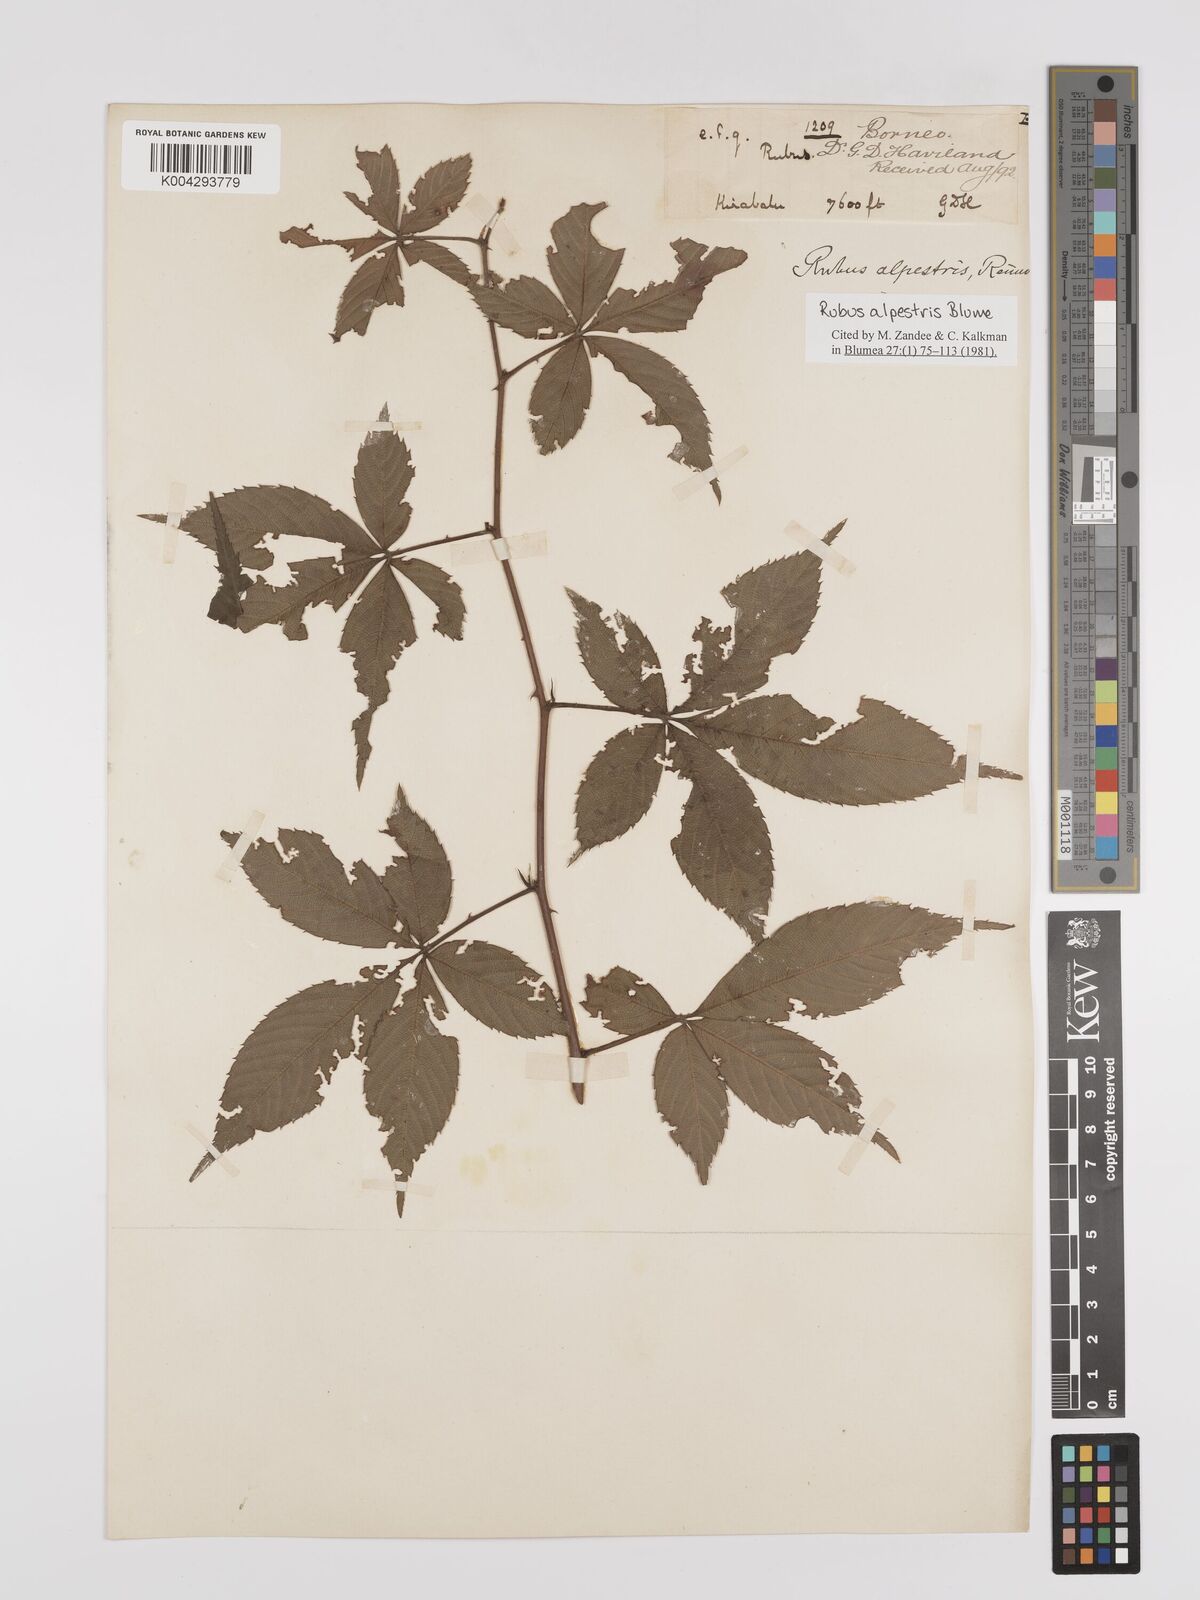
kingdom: Plantae
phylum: Tracheophyta
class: Magnoliopsida
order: Rosales
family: Rosaceae
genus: Rubus
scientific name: Rubus alpestris
